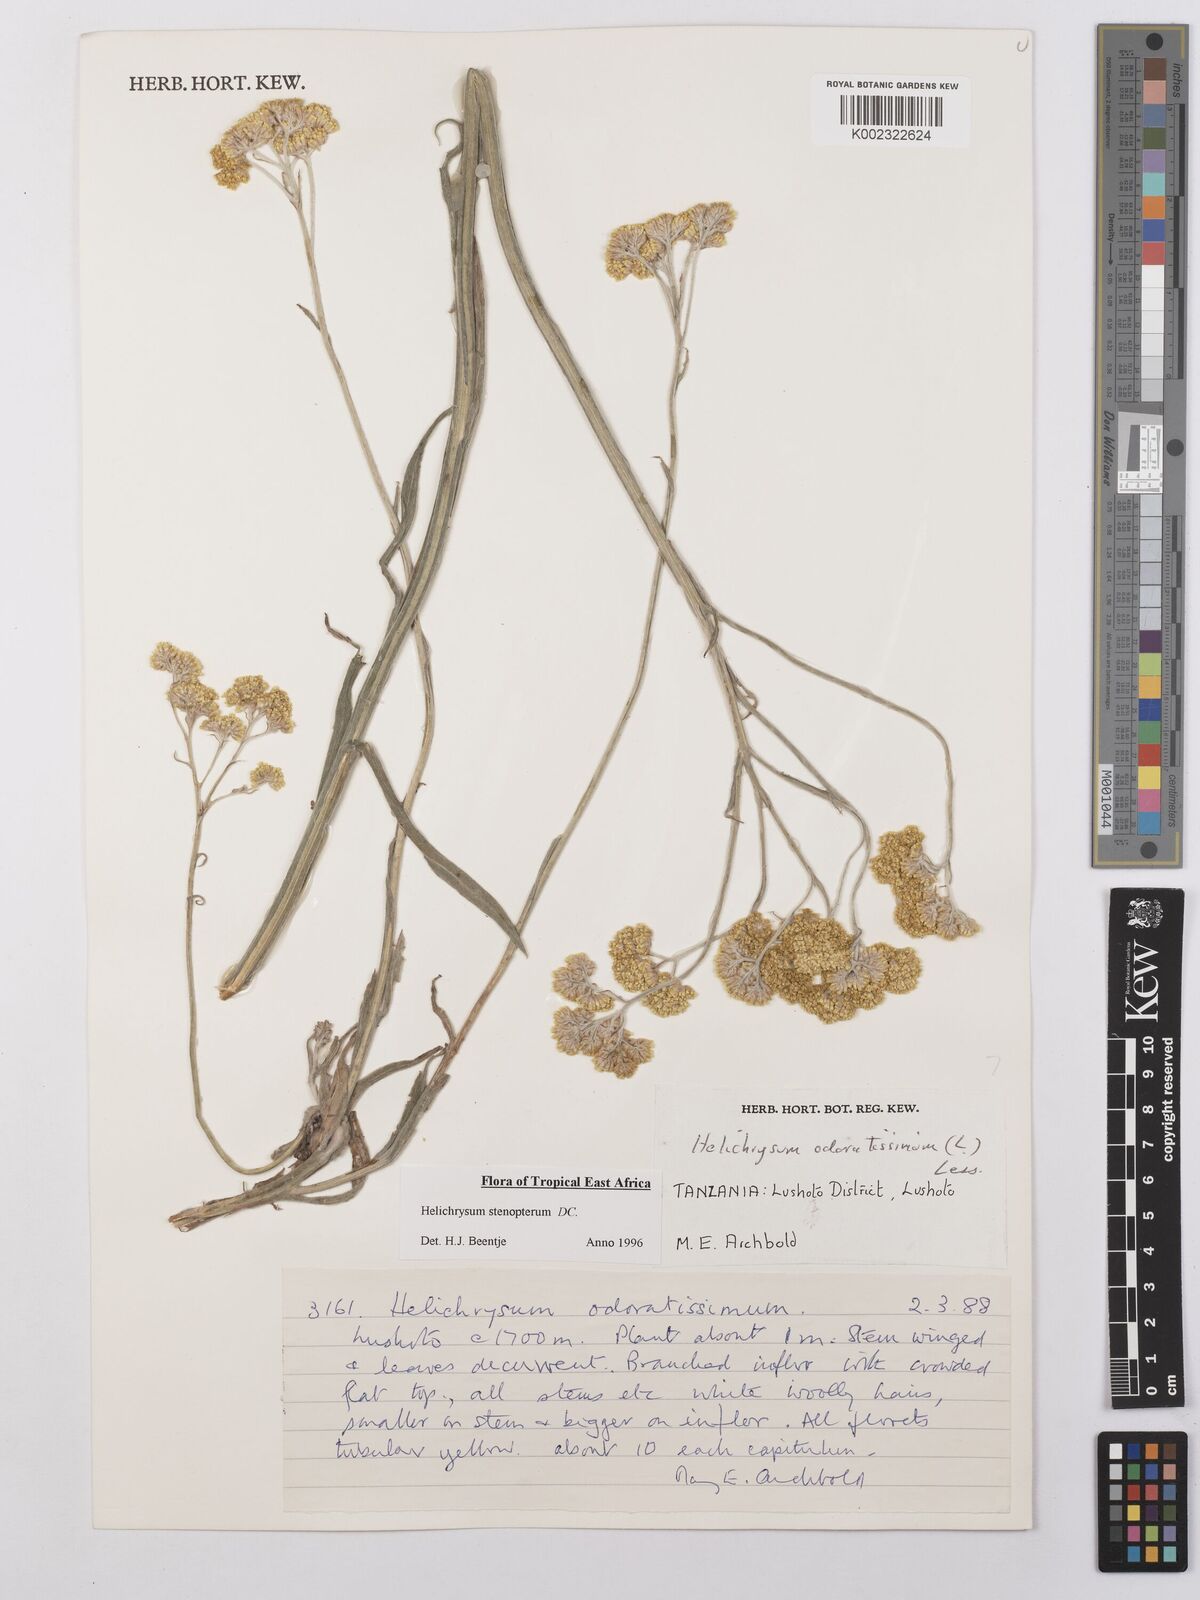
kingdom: Plantae
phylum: Tracheophyta
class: Magnoliopsida
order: Asterales
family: Asteraceae
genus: Helichrysum
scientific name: Helichrysum stenopterum
